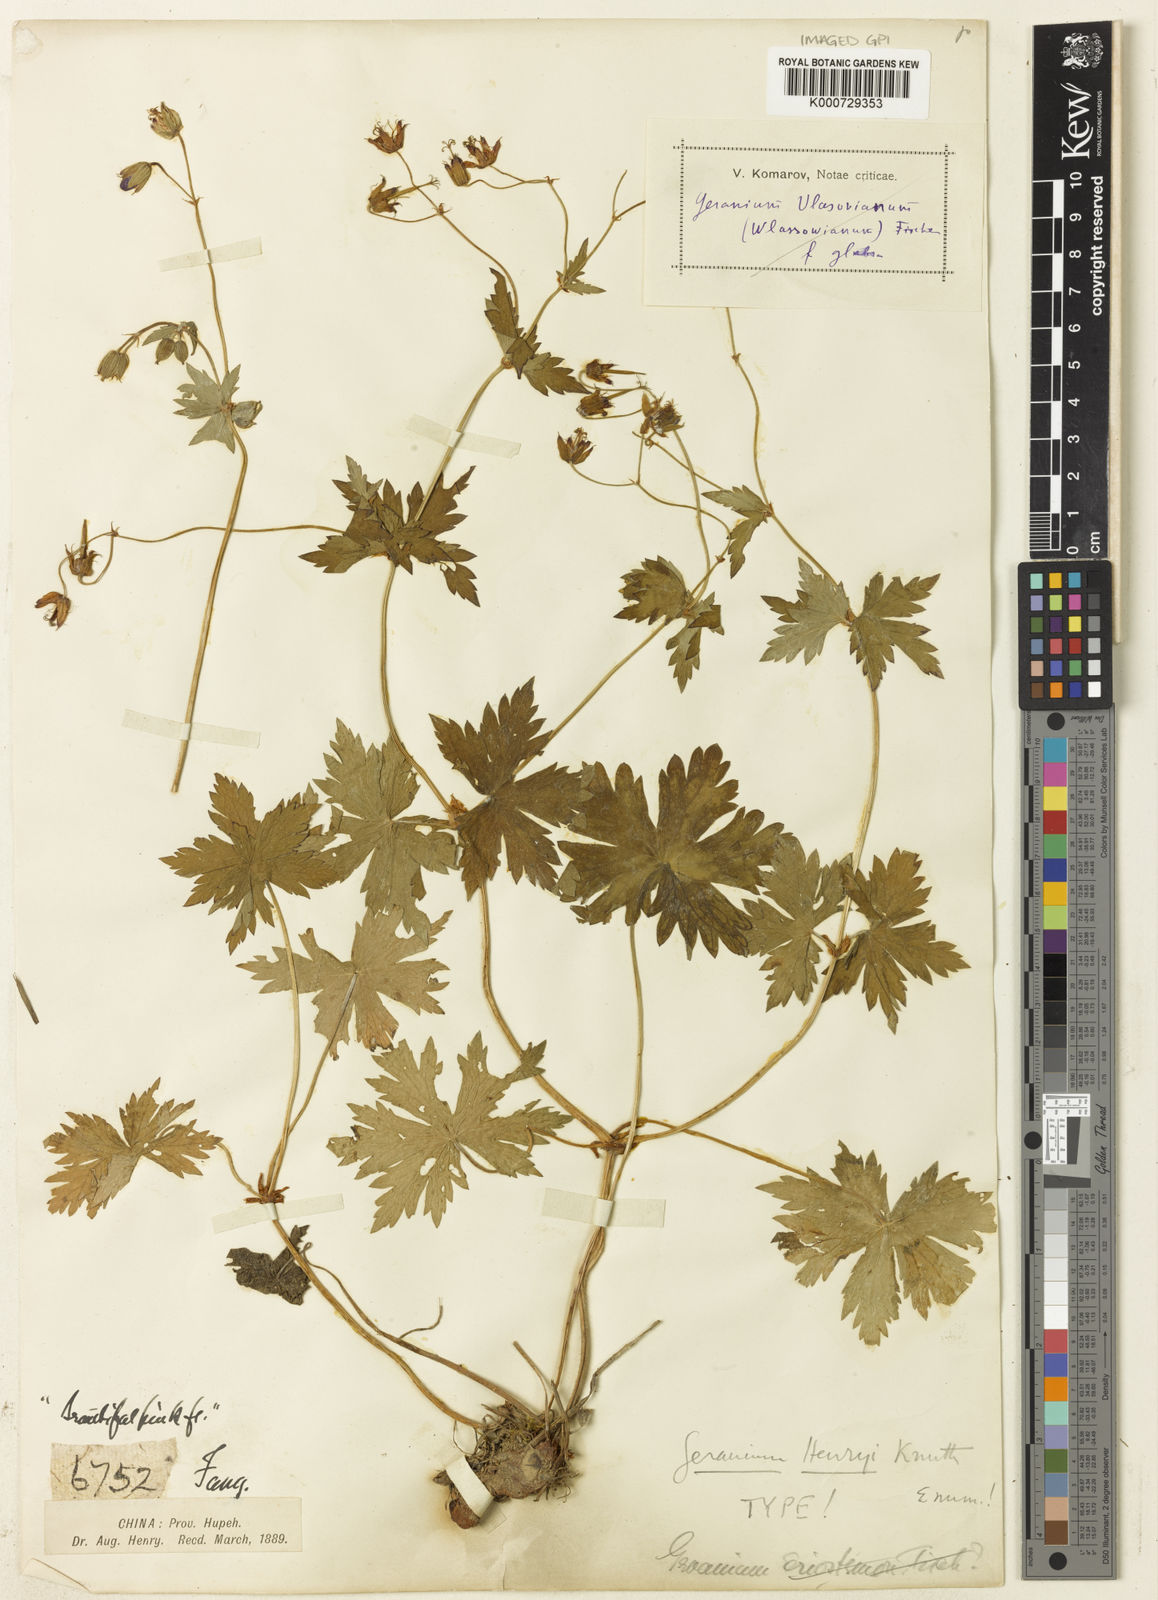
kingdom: Plantae
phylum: Tracheophyta
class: Magnoliopsida
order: Geraniales
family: Geraniaceae
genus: Geranium
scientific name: Geranium rosthornii
